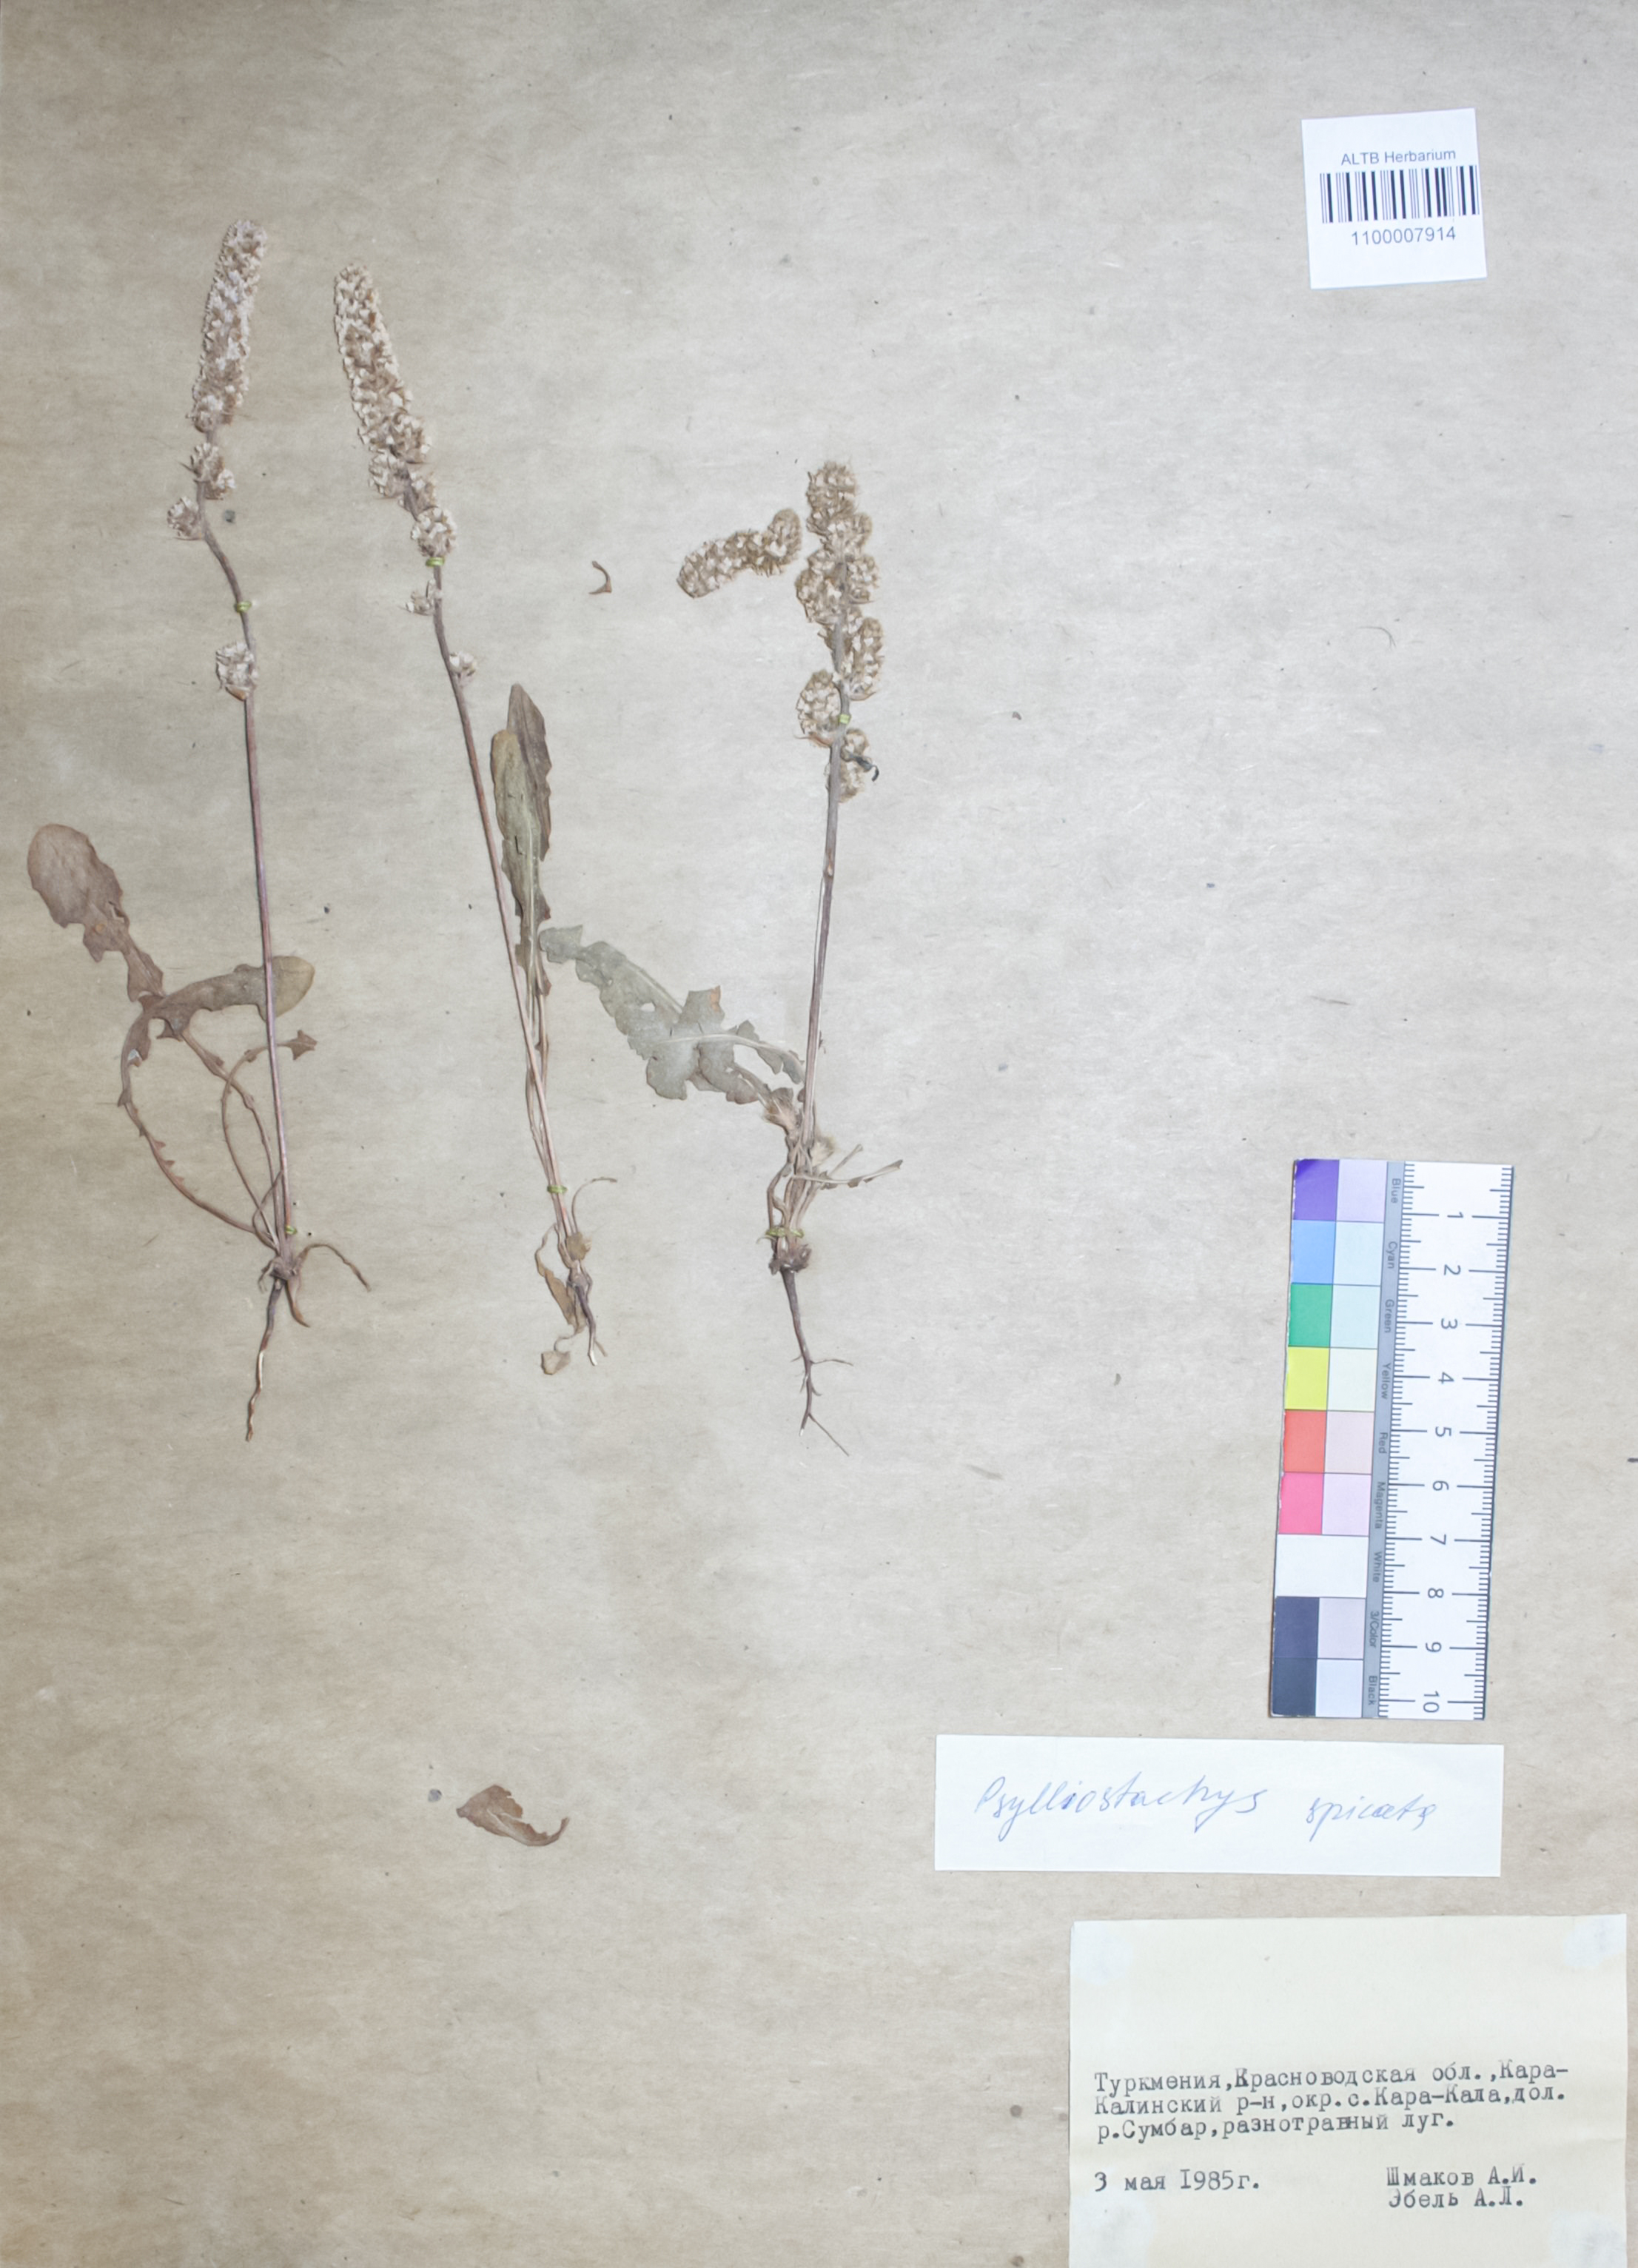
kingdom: Plantae
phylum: Tracheophyta
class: Magnoliopsida
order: Caryophyllales
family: Plumbaginaceae
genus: Psylliostachys
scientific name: Psylliostachys spicatus
